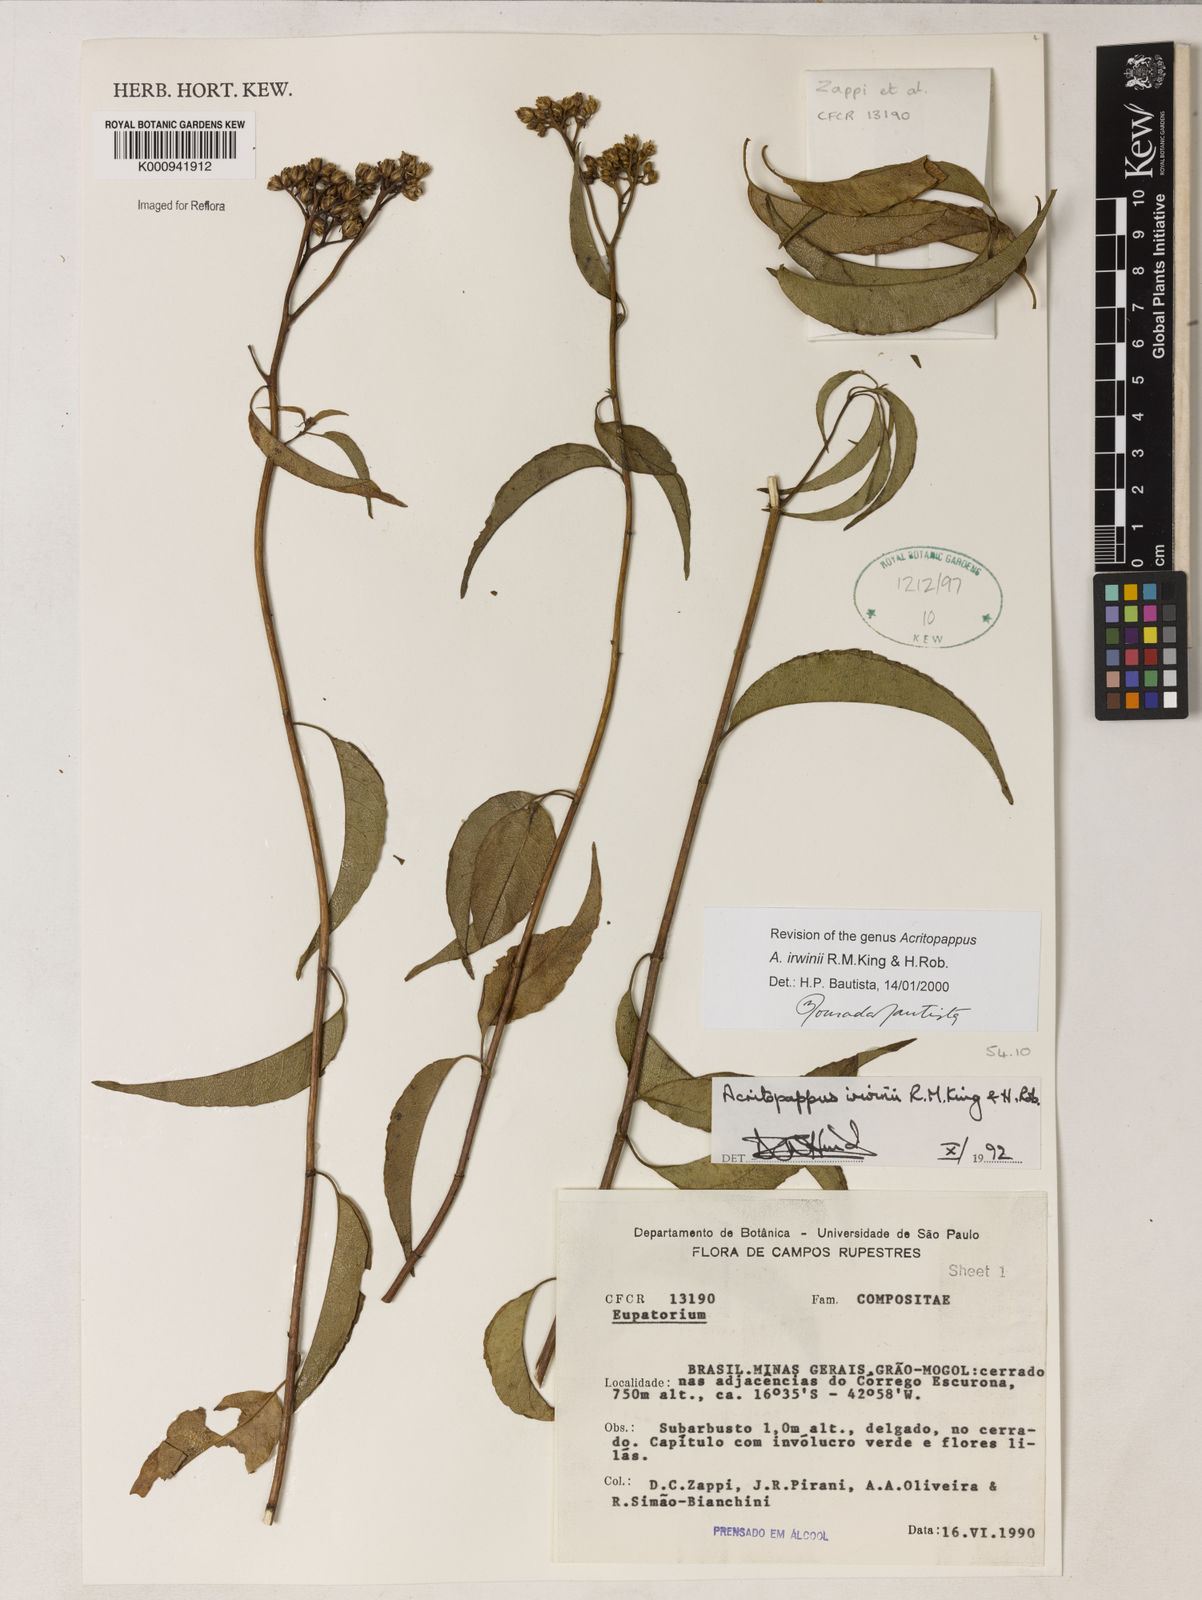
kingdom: Plantae
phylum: Tracheophyta
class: Magnoliopsida
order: Asterales
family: Asteraceae
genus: Acritopappus
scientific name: Acritopappus irwinii
